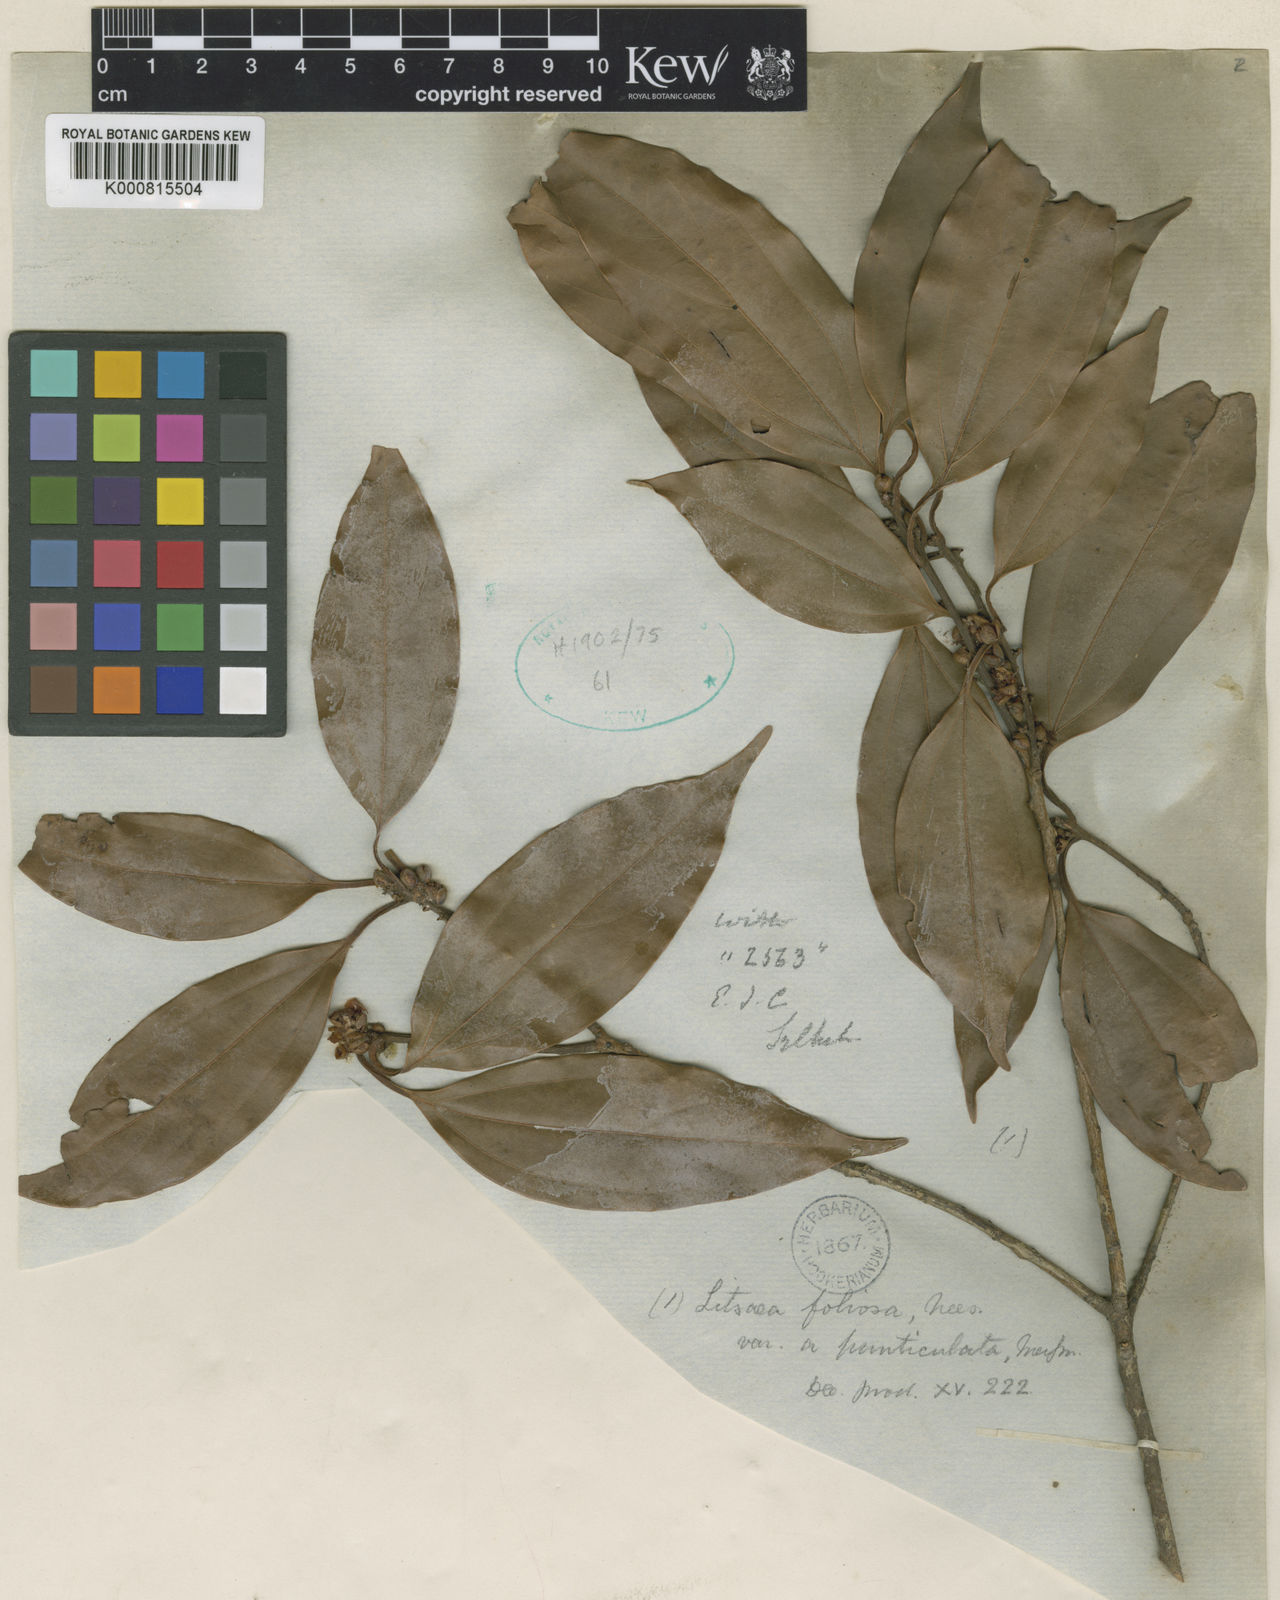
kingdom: Plantae
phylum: Tracheophyta
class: Magnoliopsida
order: Laurales
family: Lauraceae
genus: Neolitsea
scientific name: Neolitsea
